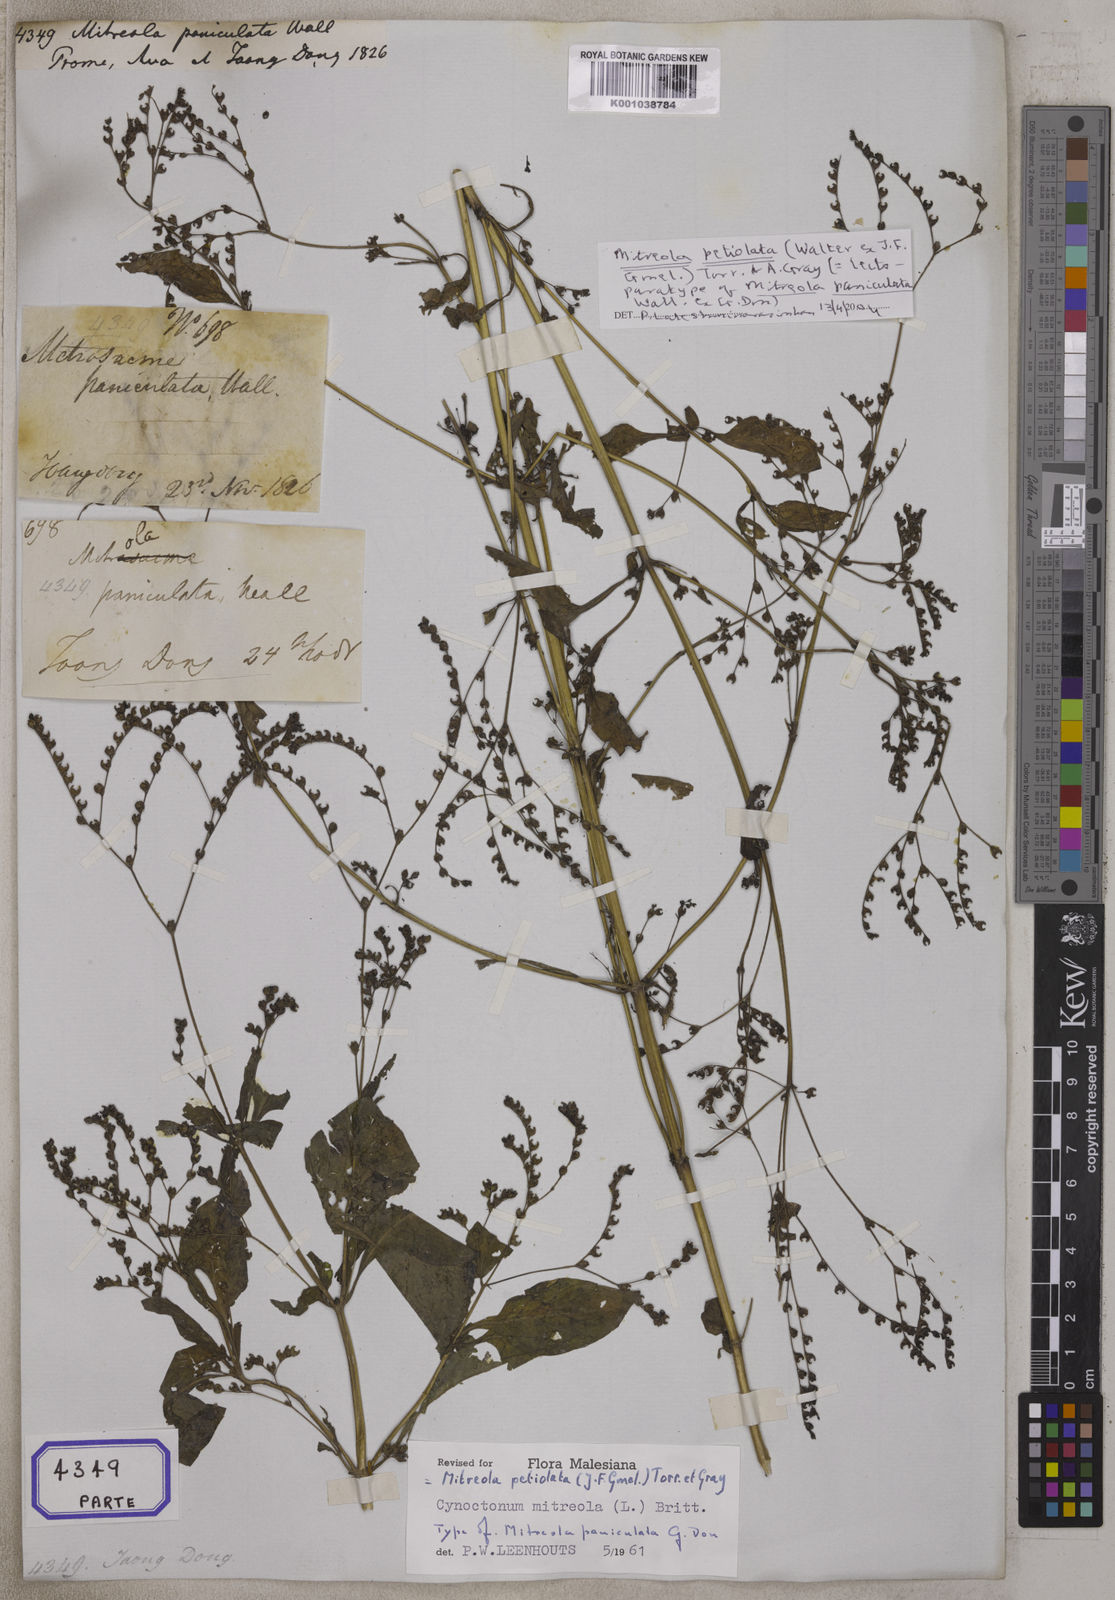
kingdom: Plantae
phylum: Tracheophyta
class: Magnoliopsida
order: Gentianales
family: Loganiaceae
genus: Mitreola
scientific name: Mitreola
